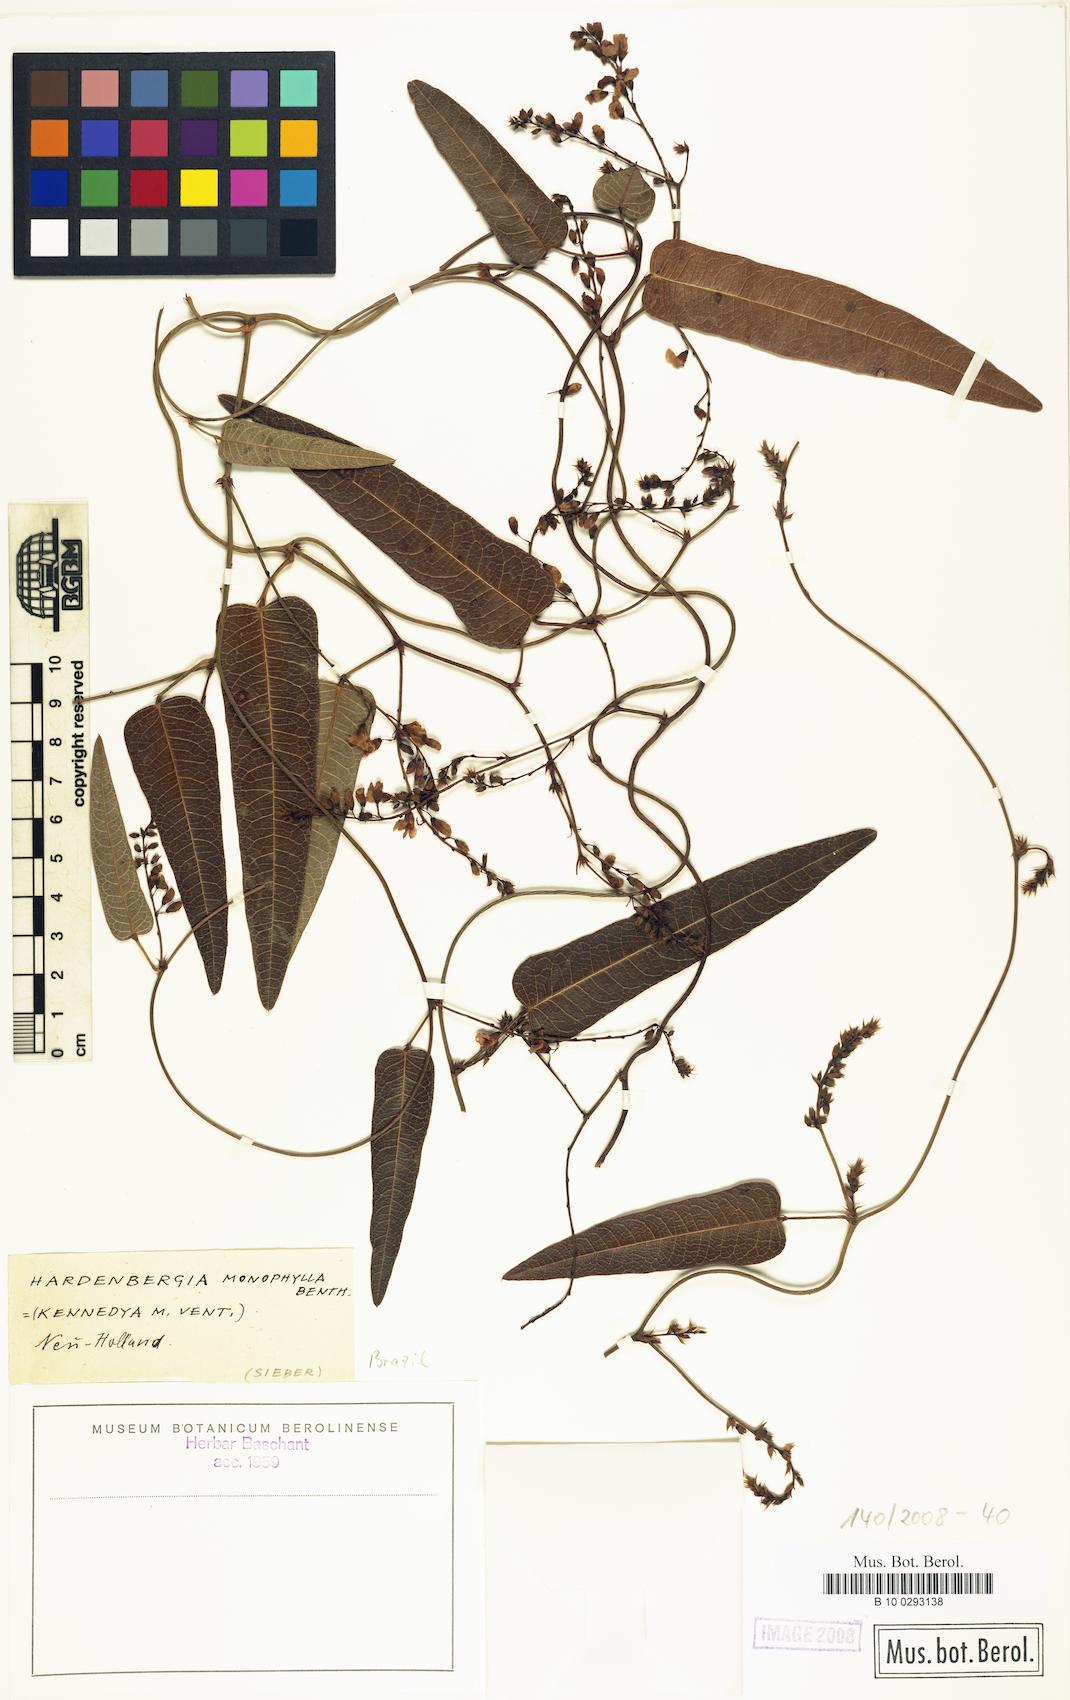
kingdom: Plantae
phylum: Tracheophyta
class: Magnoliopsida
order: Fabales
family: Fabaceae
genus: Hardenbergia
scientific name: Hardenbergia violacea
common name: Coral-pea
